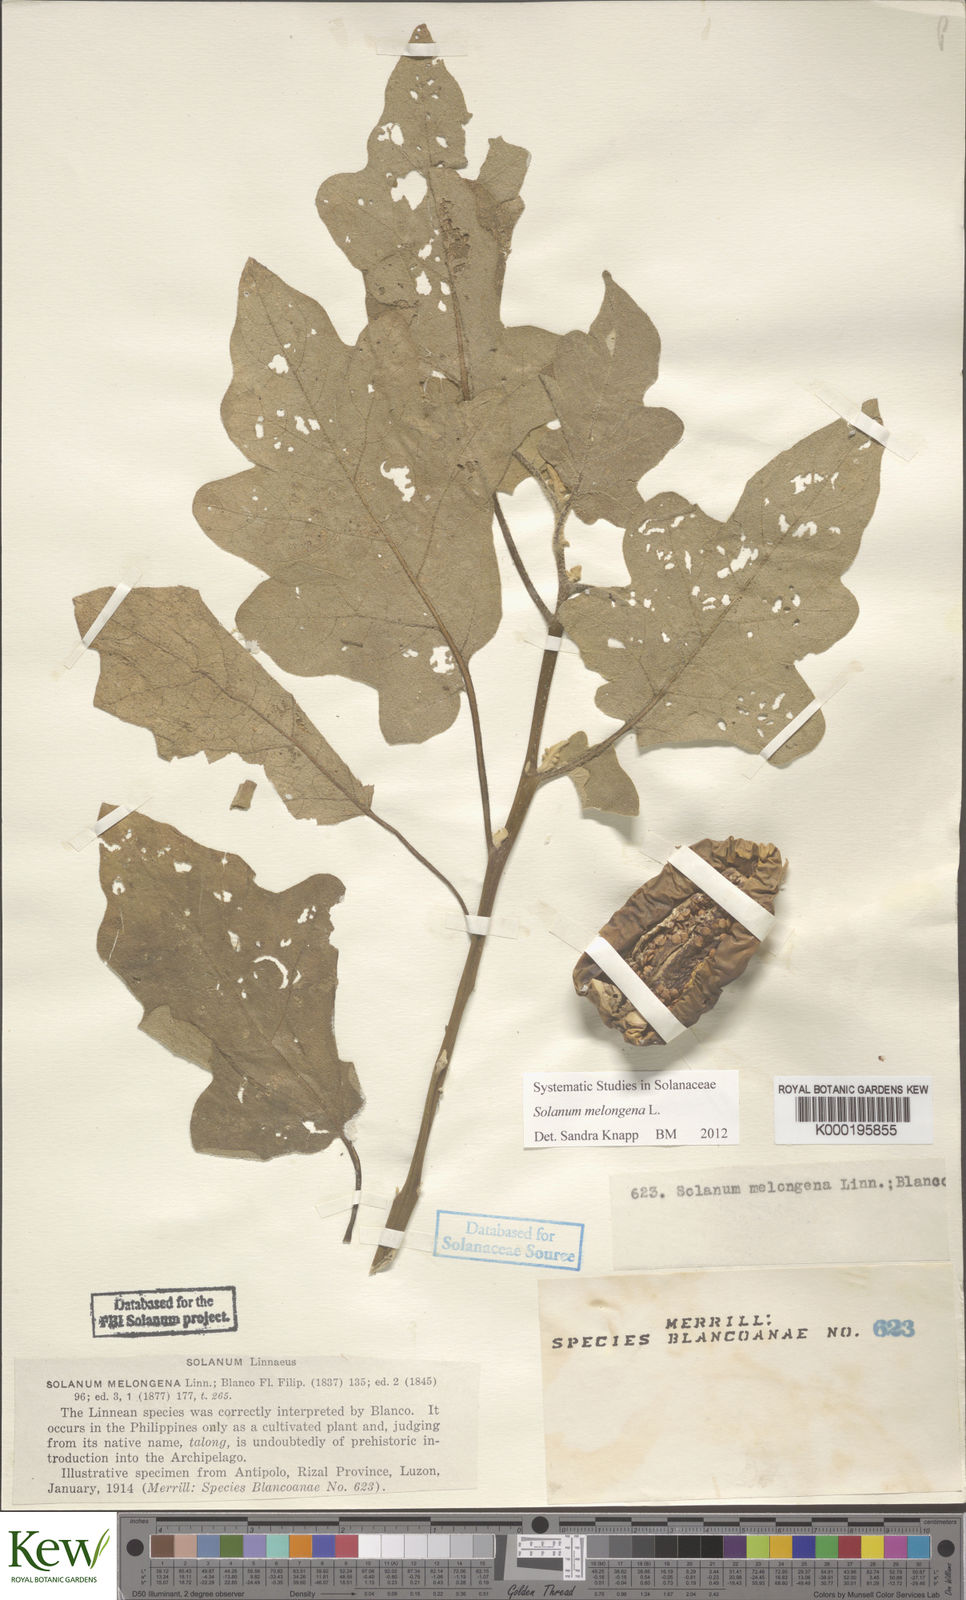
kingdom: Plantae
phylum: Tracheophyta
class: Magnoliopsida
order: Solanales
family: Solanaceae
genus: Solanum
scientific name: Solanum melongena
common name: Eggplant
